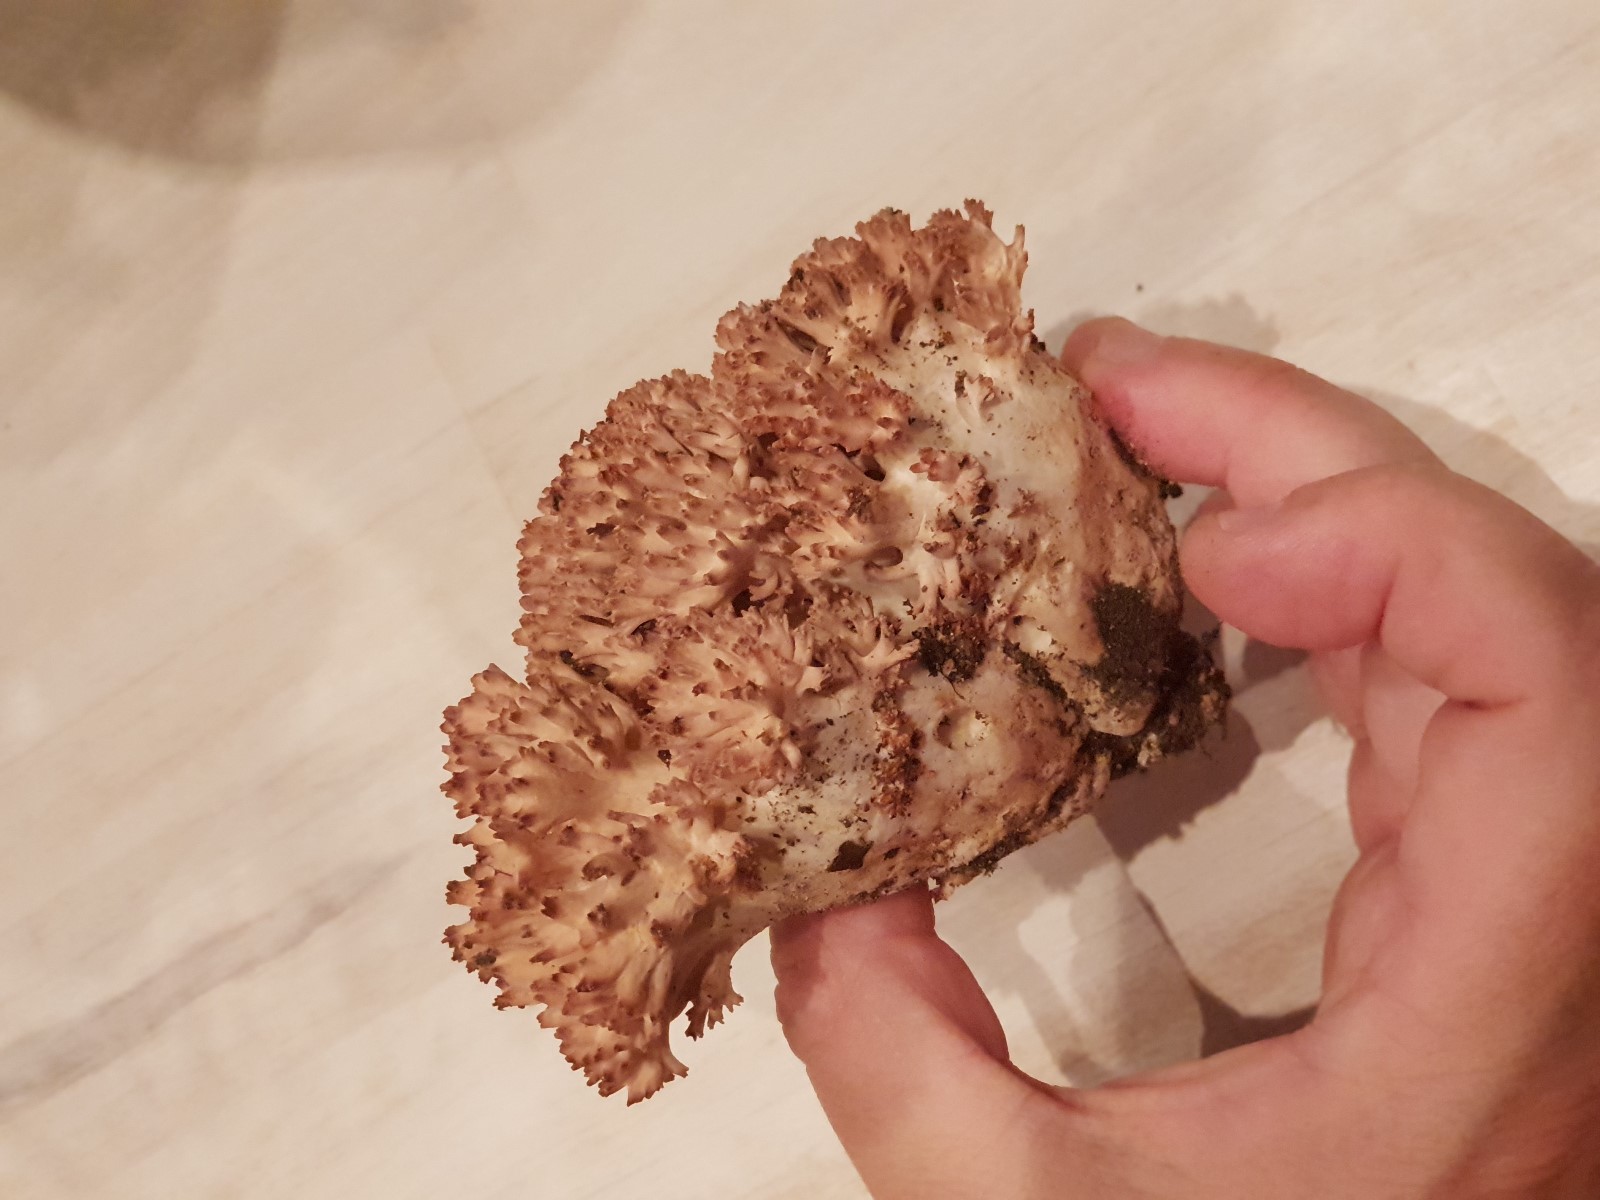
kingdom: Fungi
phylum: Basidiomycota
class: Agaricomycetes
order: Gomphales
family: Gomphaceae
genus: Ramaria
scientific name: Ramaria botrytis
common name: drue-koralsvamp
